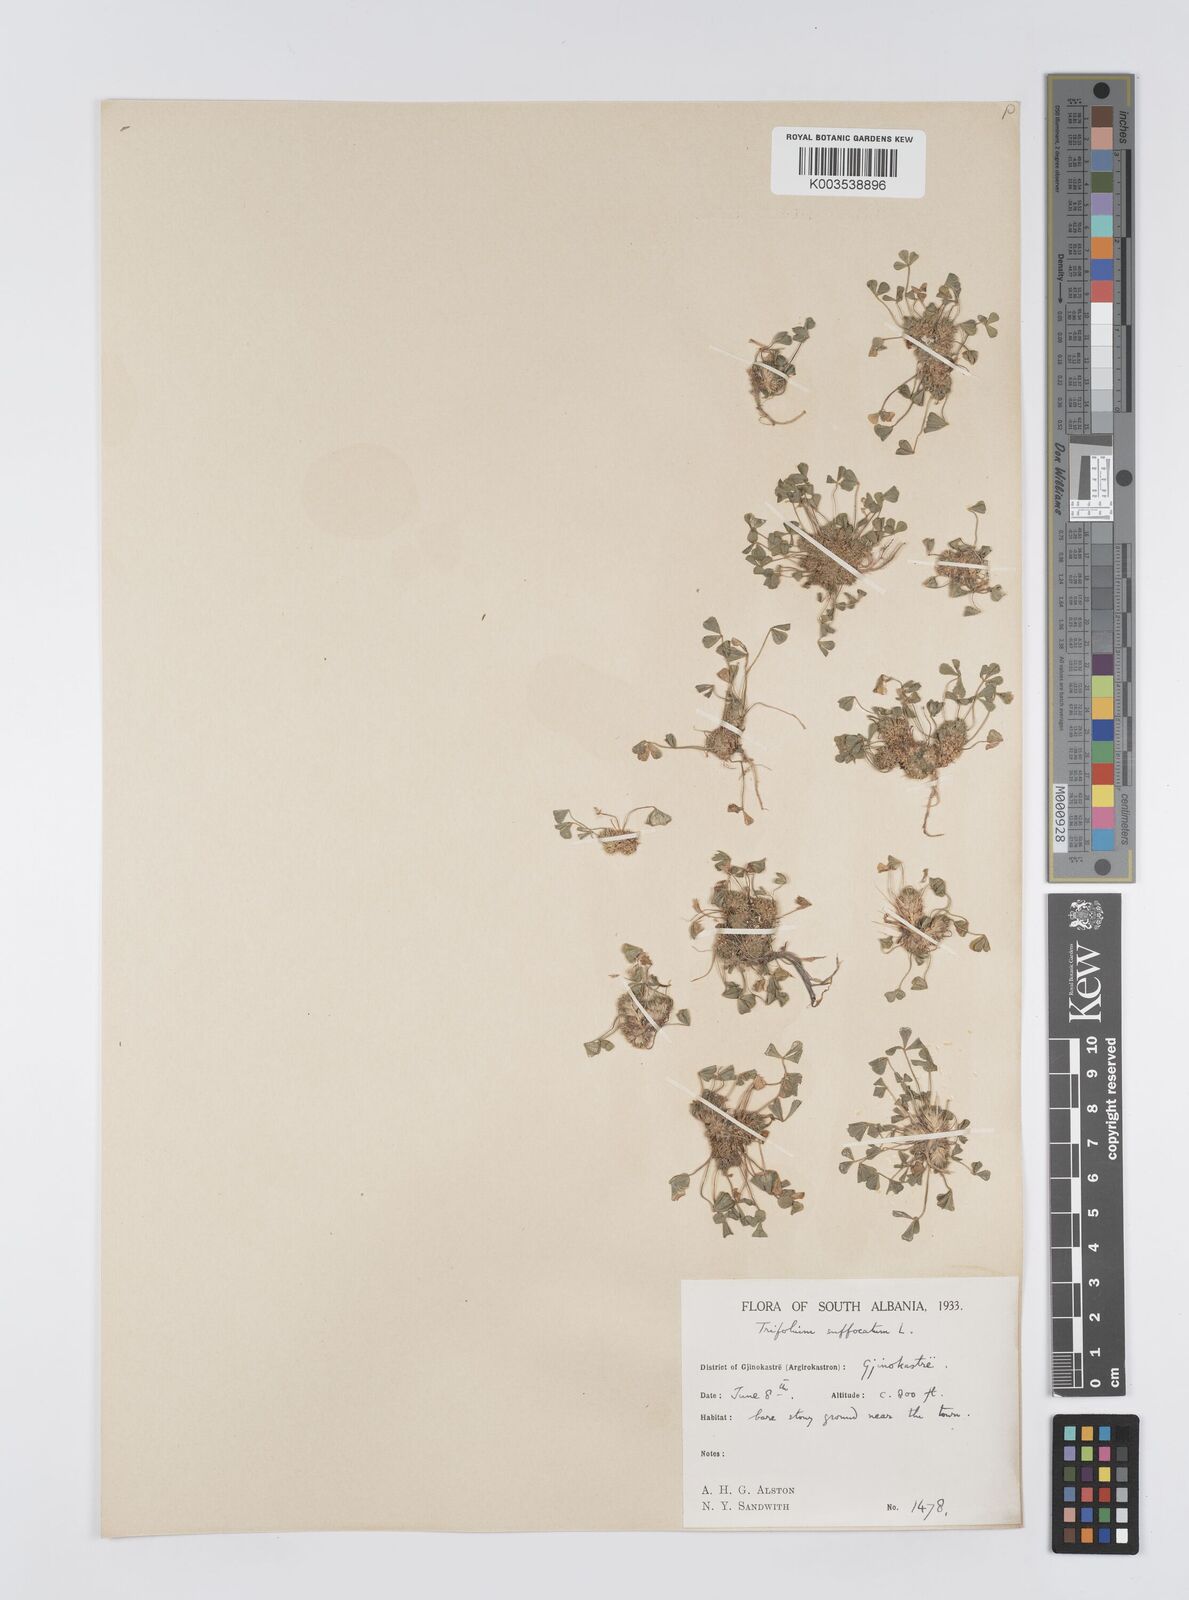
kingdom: Plantae
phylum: Tracheophyta
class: Magnoliopsida
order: Fabales
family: Fabaceae
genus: Trifolium
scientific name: Trifolium suffocatum
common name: Suffocated clover
